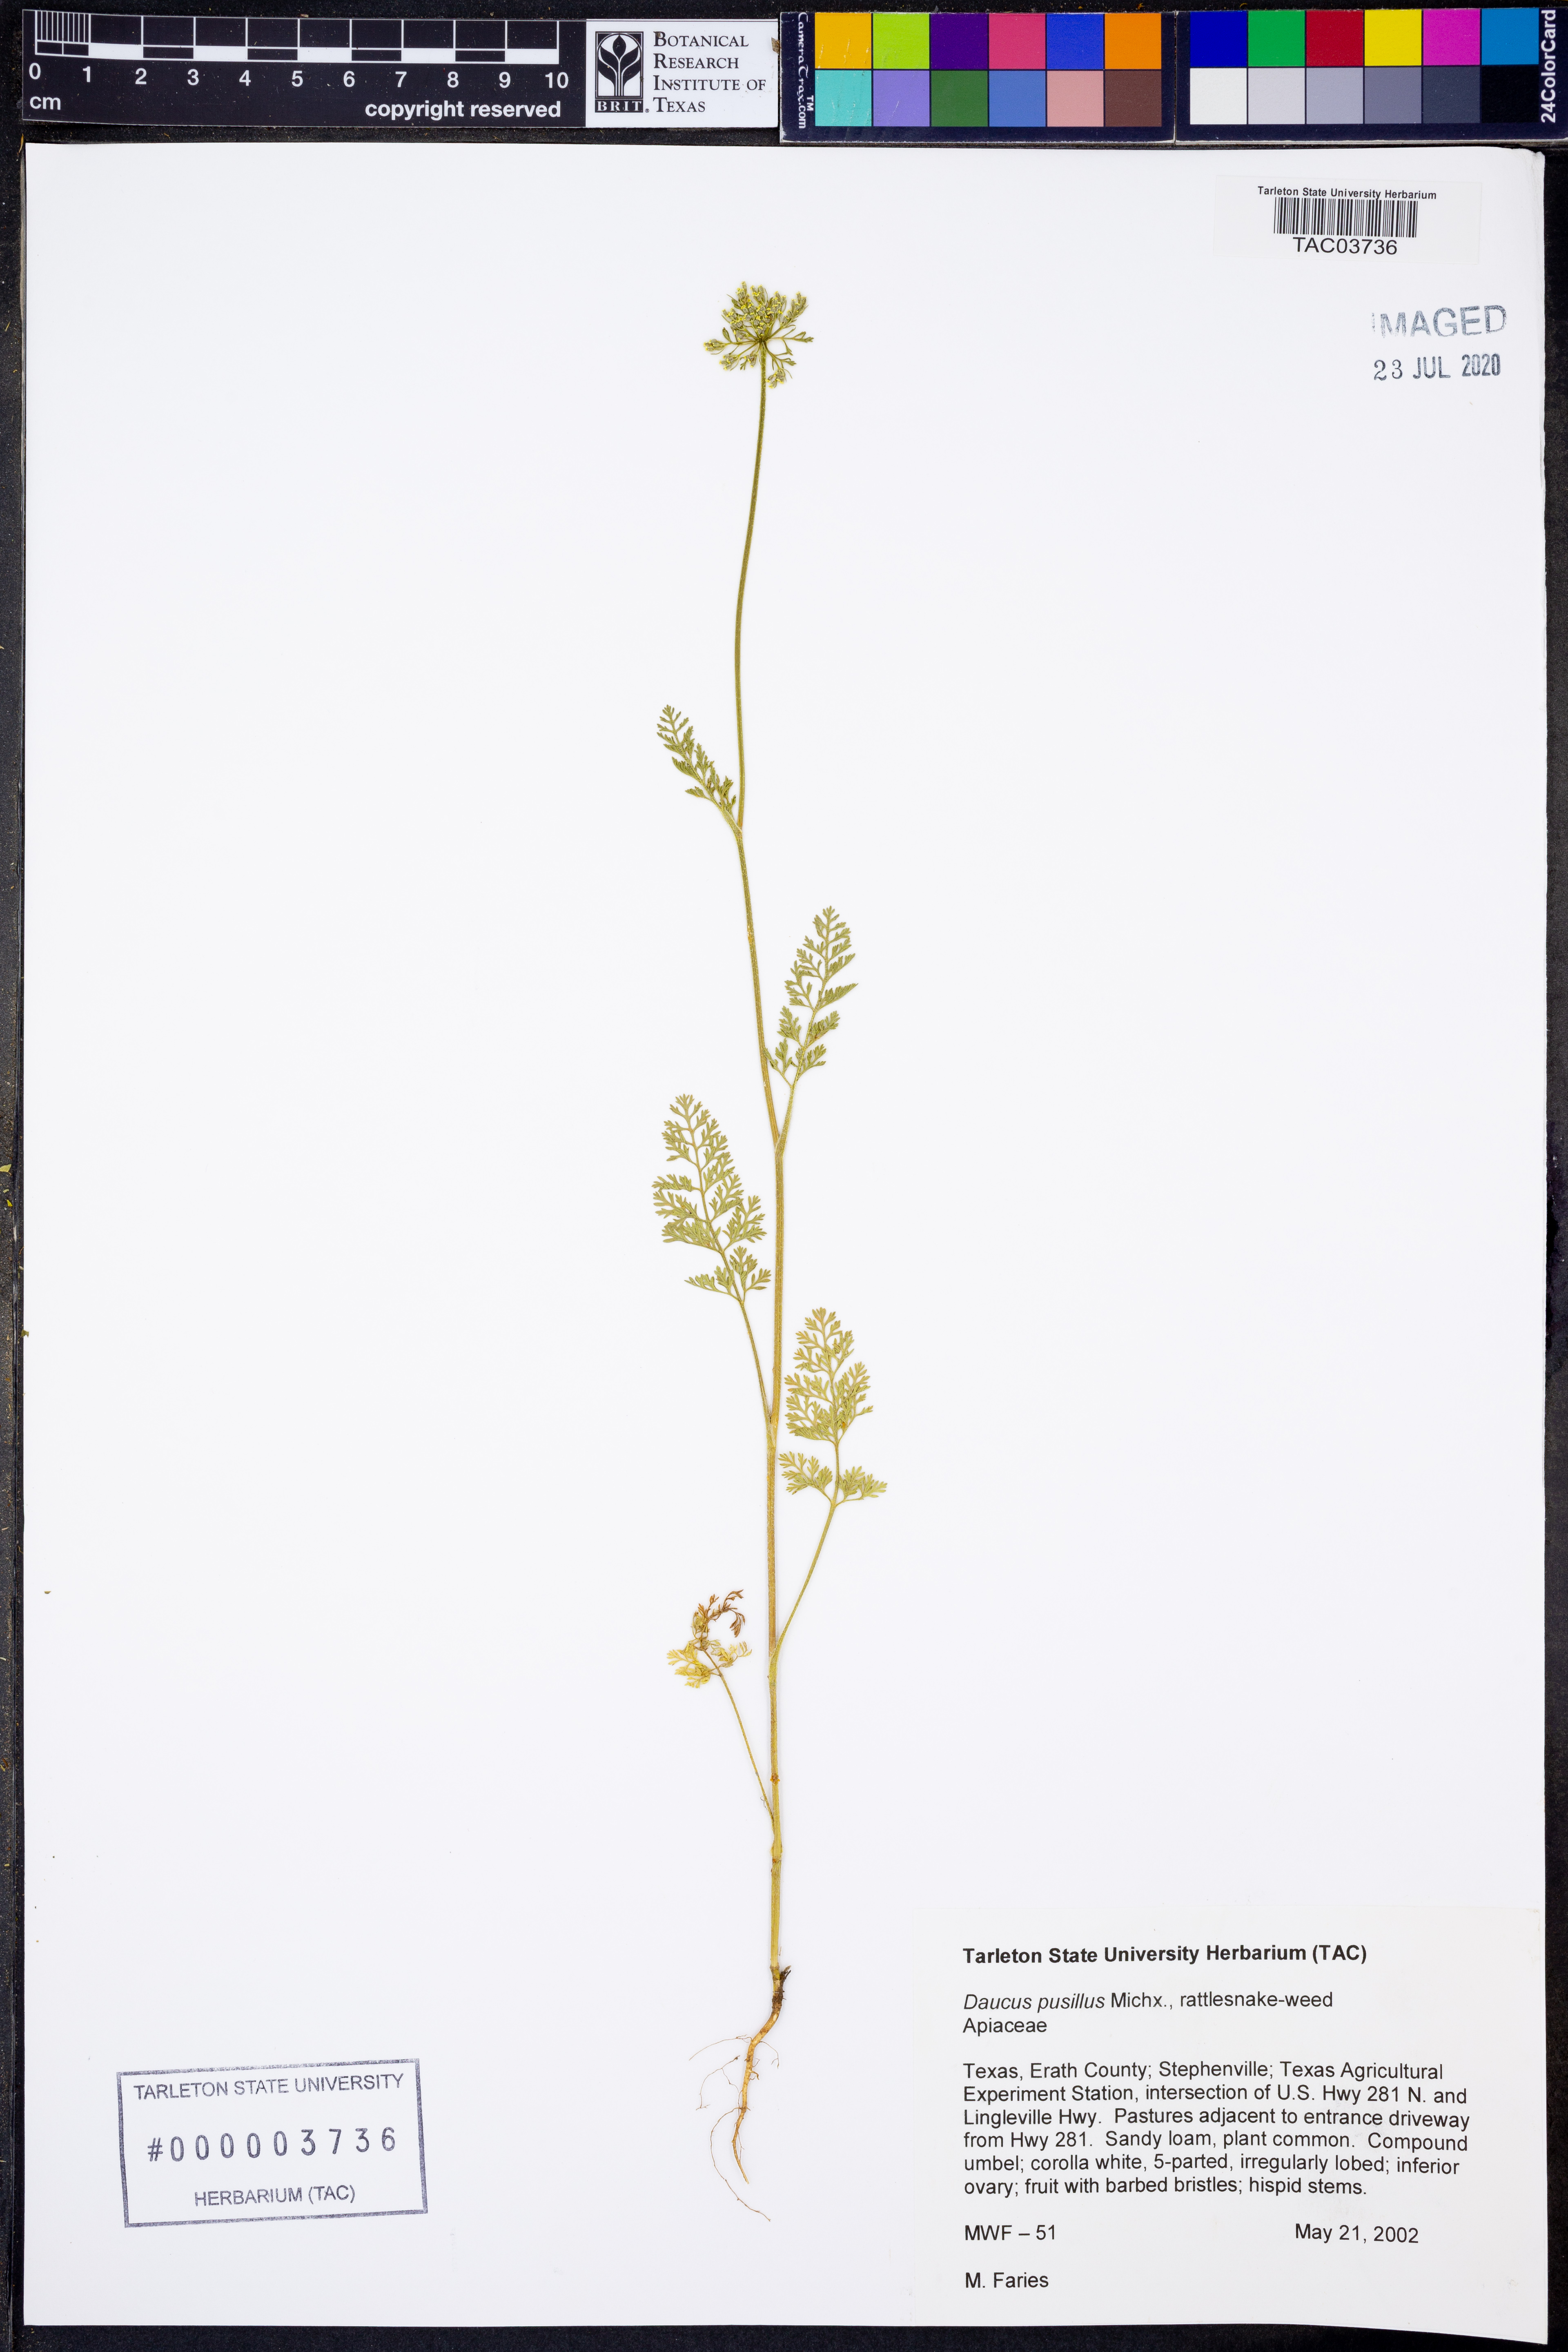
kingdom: Plantae
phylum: Tracheophyta
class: Magnoliopsida
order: Apiales
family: Apiaceae
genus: Daucus
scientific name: Daucus pusillus
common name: Southwest wild carrot
